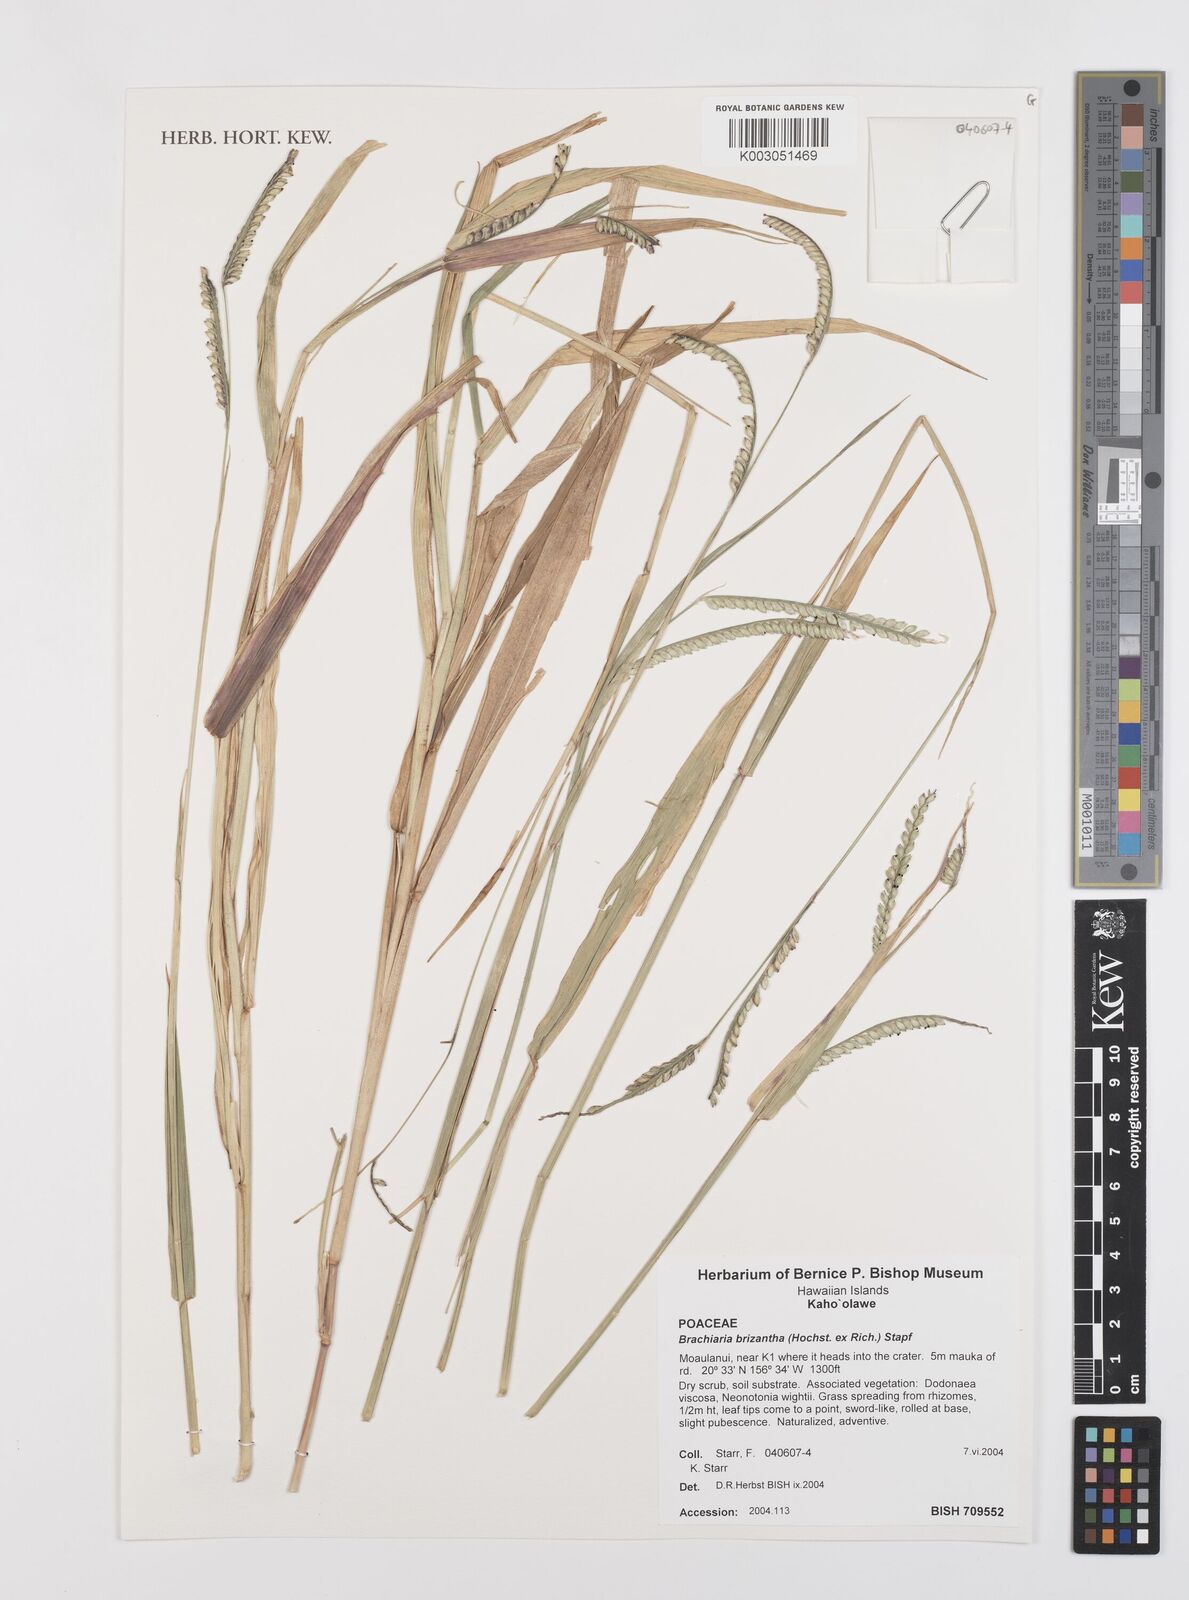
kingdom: Plantae
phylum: Tracheophyta
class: Liliopsida
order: Poales
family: Poaceae
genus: Urochloa
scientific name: Urochloa brizantha
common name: Palisade signalgrass
